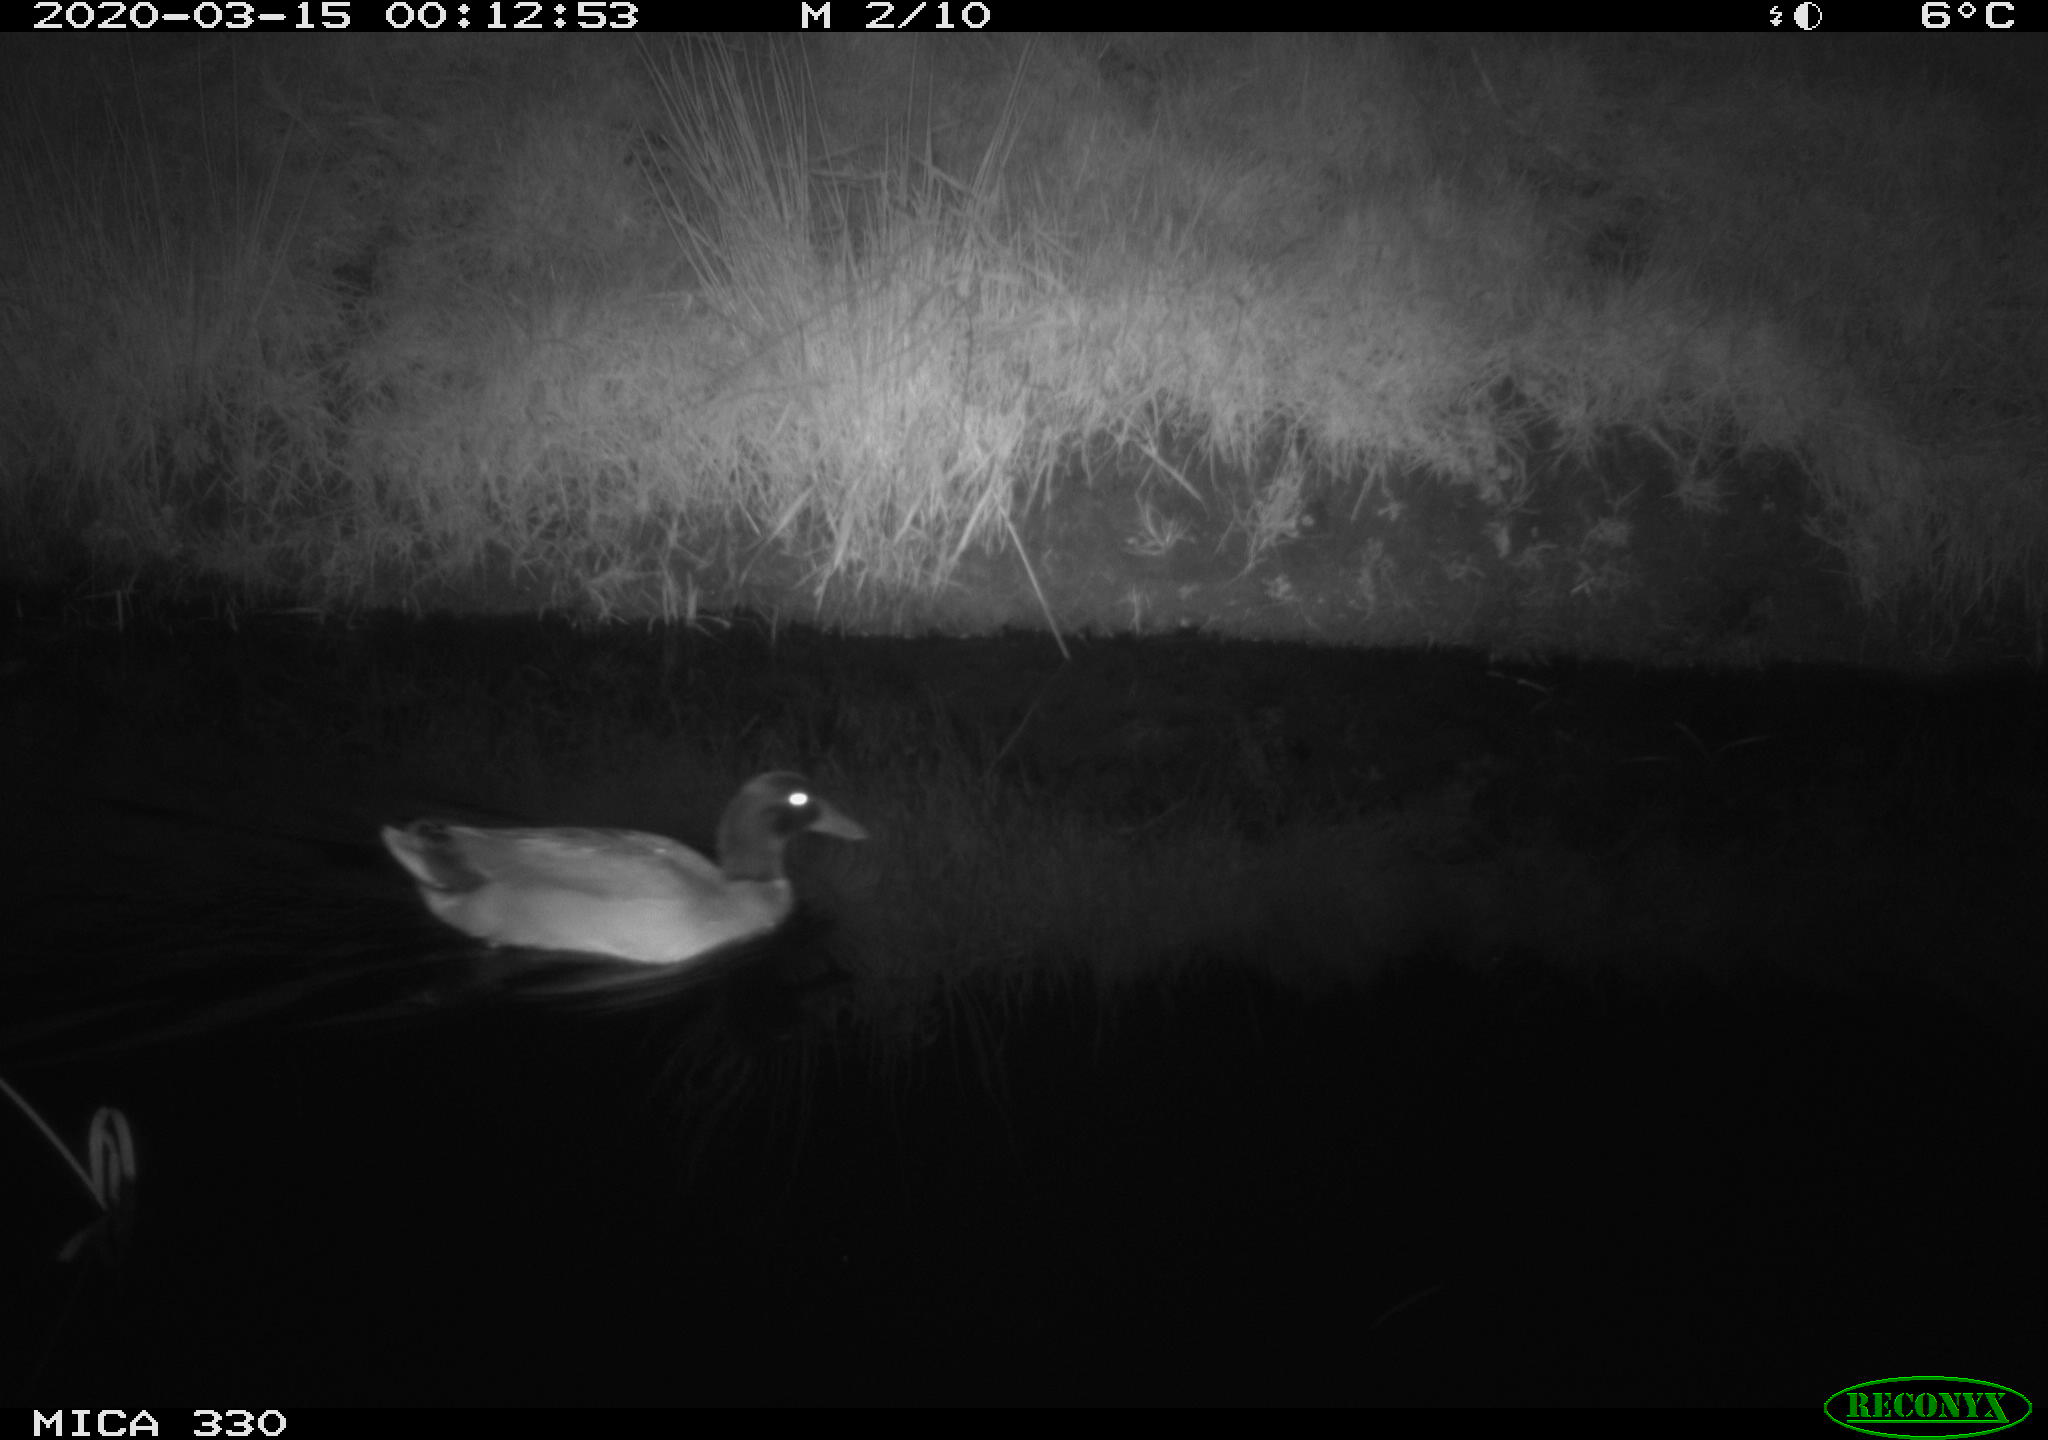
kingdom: Animalia
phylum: Chordata
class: Aves
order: Anseriformes
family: Anatidae
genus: Anas
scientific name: Anas platyrhynchos
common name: Mallard
